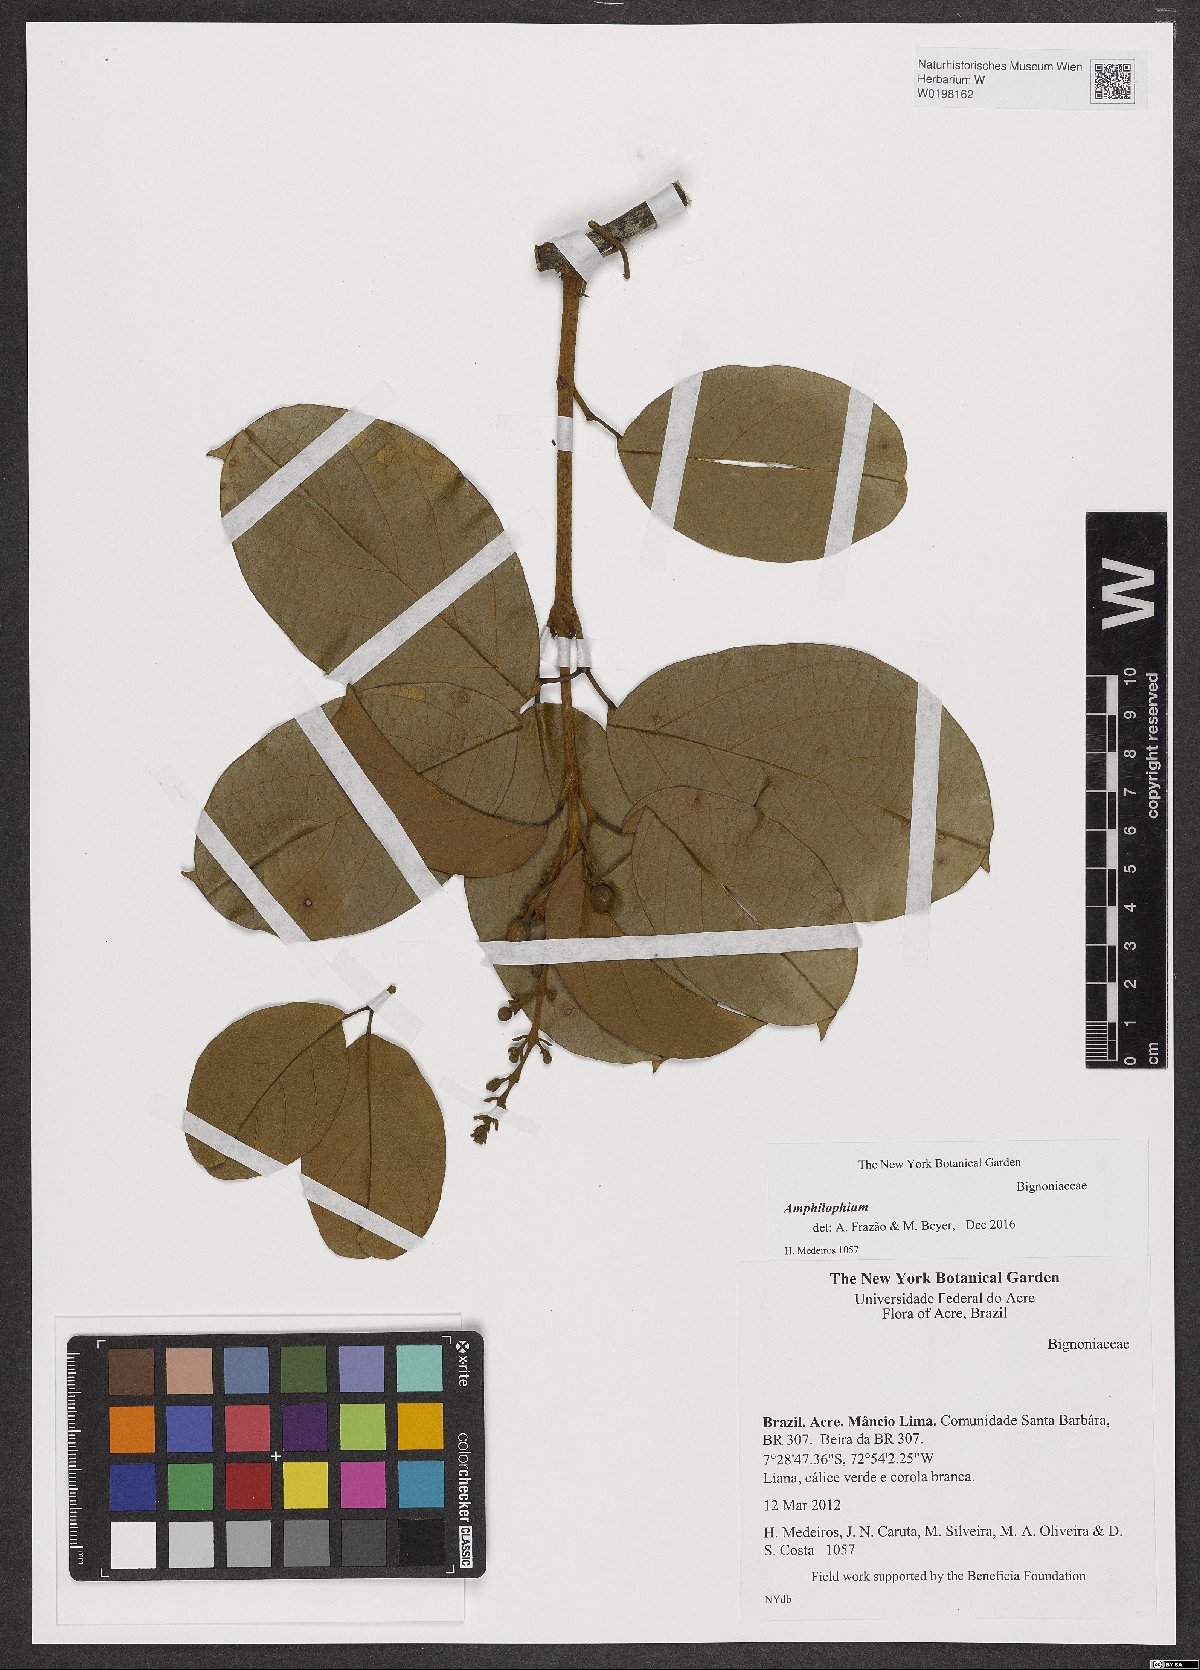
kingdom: Plantae
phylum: Tracheophyta
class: Magnoliopsida
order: Lamiales
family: Bignoniaceae
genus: Amphilophium
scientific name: Amphilophium
